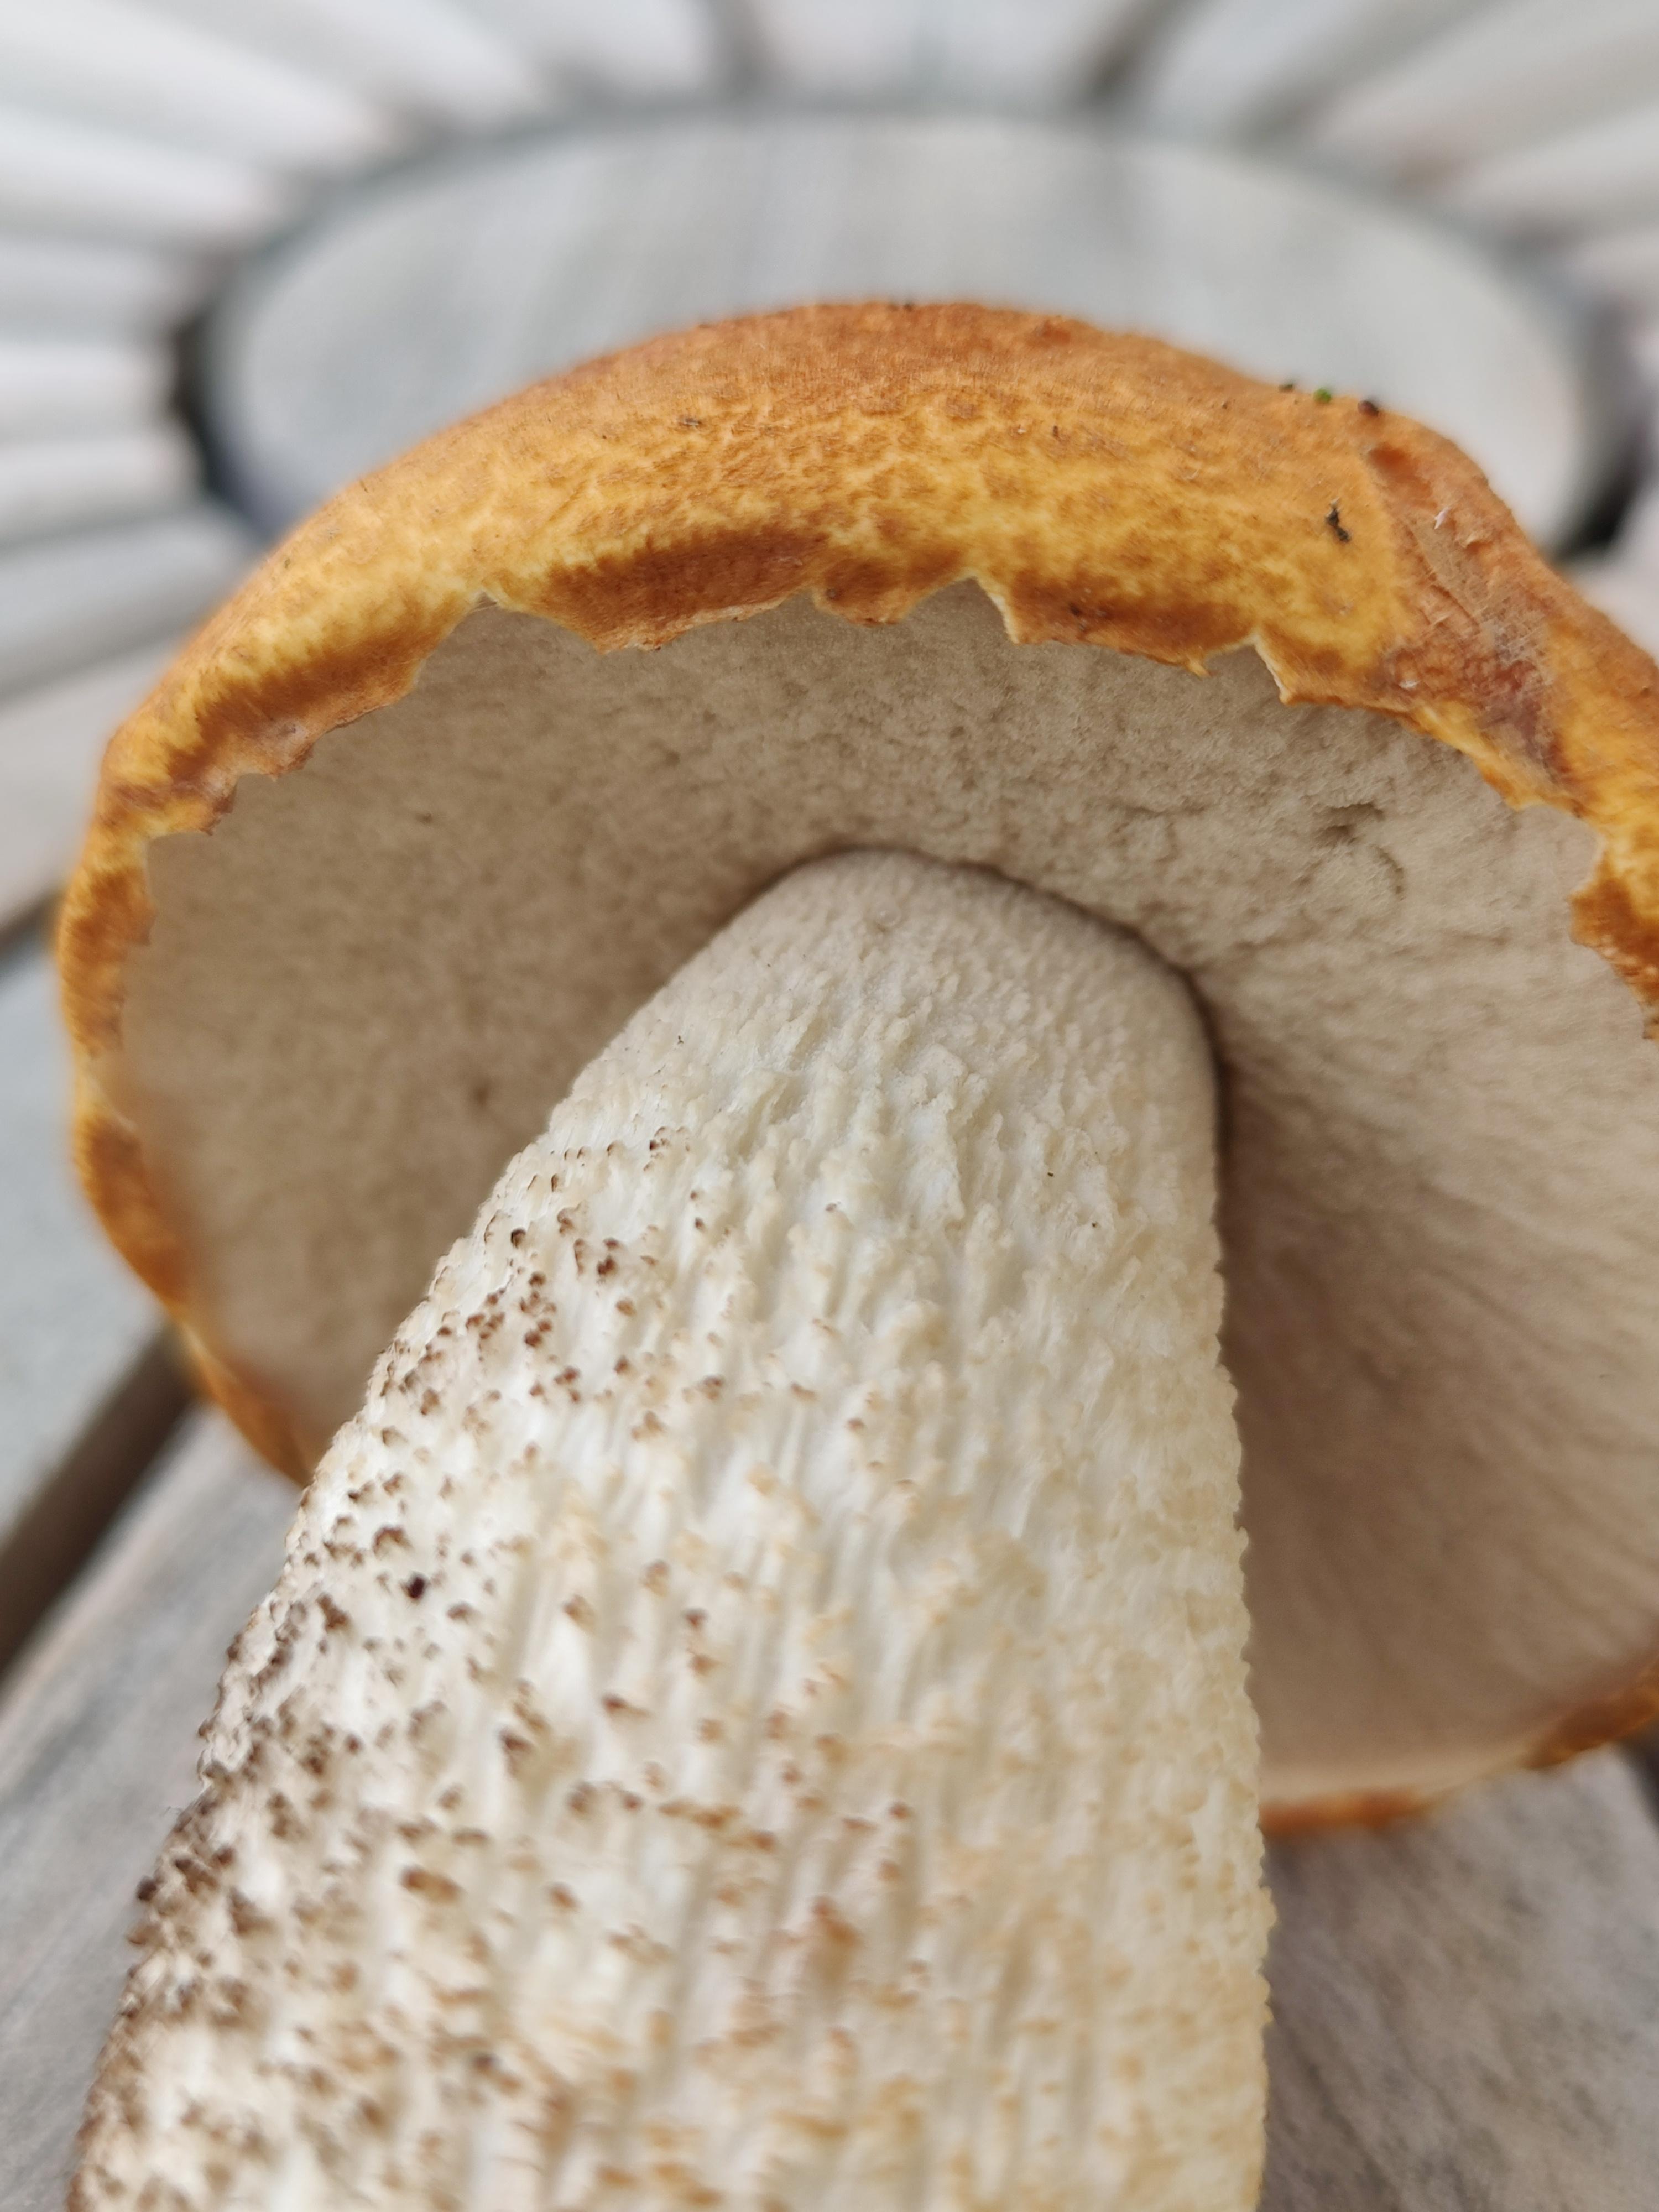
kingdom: Fungi
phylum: Basidiomycota
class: Agaricomycetes
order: Boletales
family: Boletaceae
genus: Leccinum
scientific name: Leccinum albostipitatum
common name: aspe-skælrørhat
